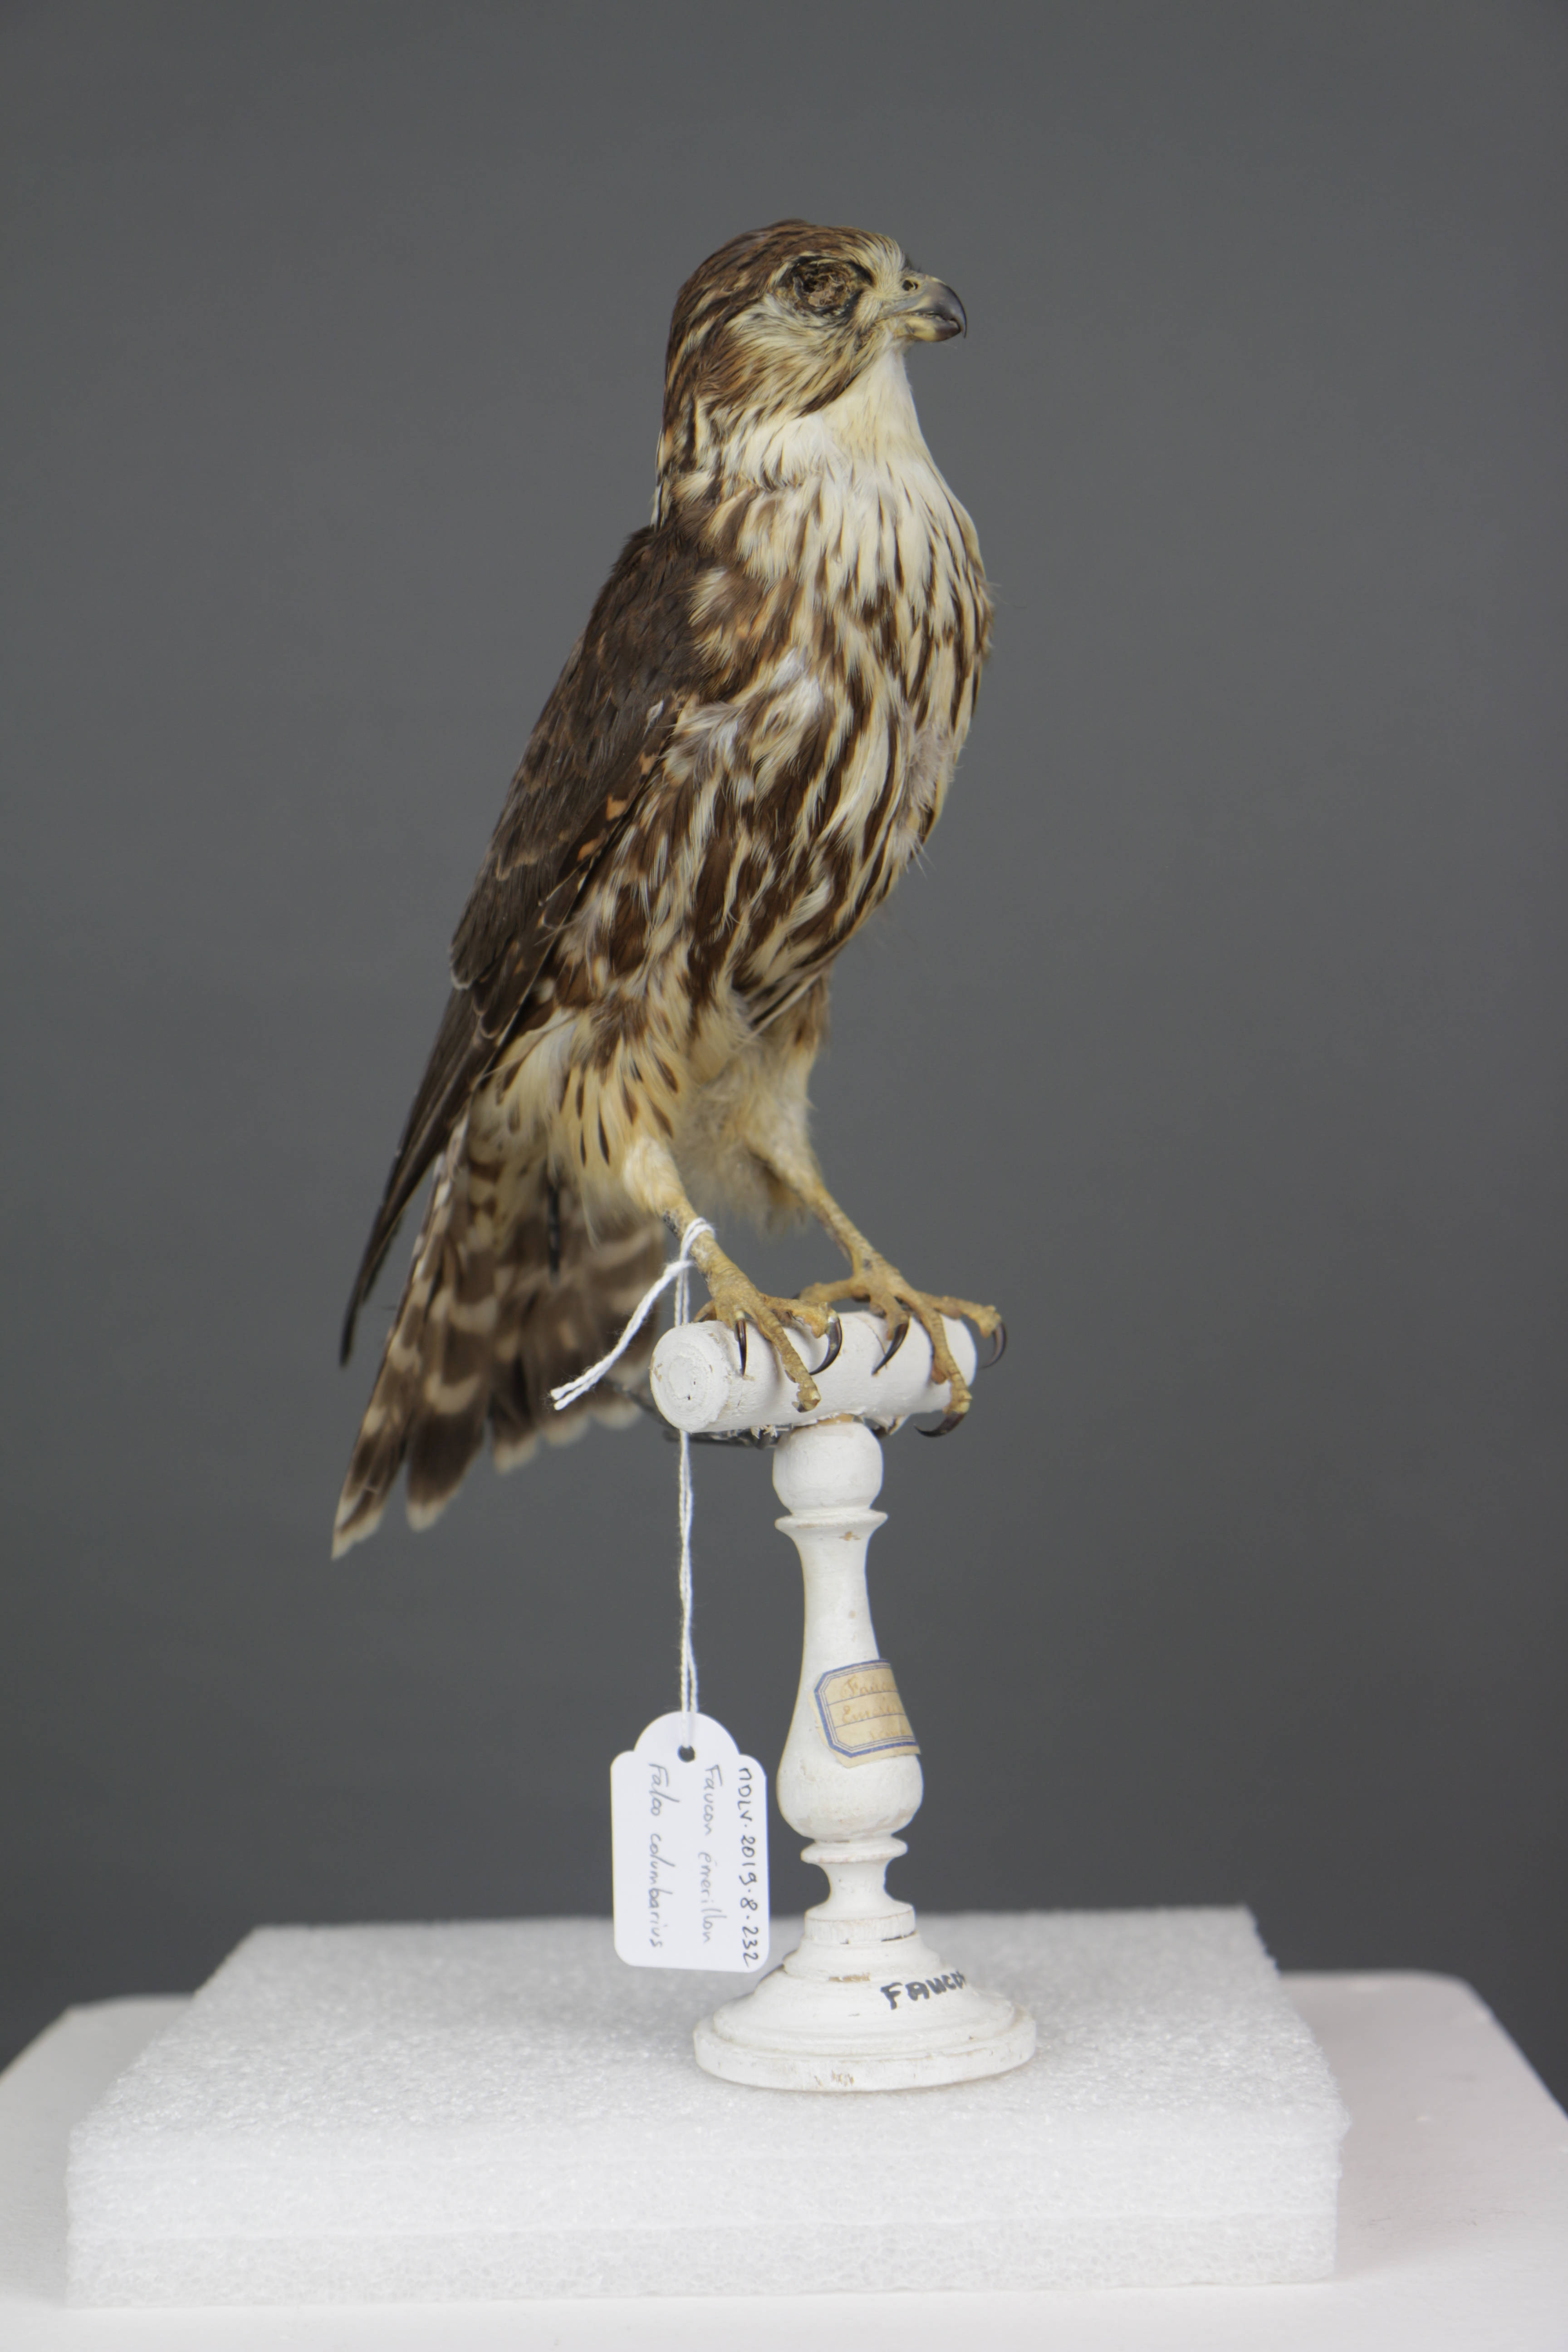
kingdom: Animalia
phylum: Chordata
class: Aves
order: Falconiformes
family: Falconidae
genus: Falco
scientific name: Falco columbarius
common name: Merlin
